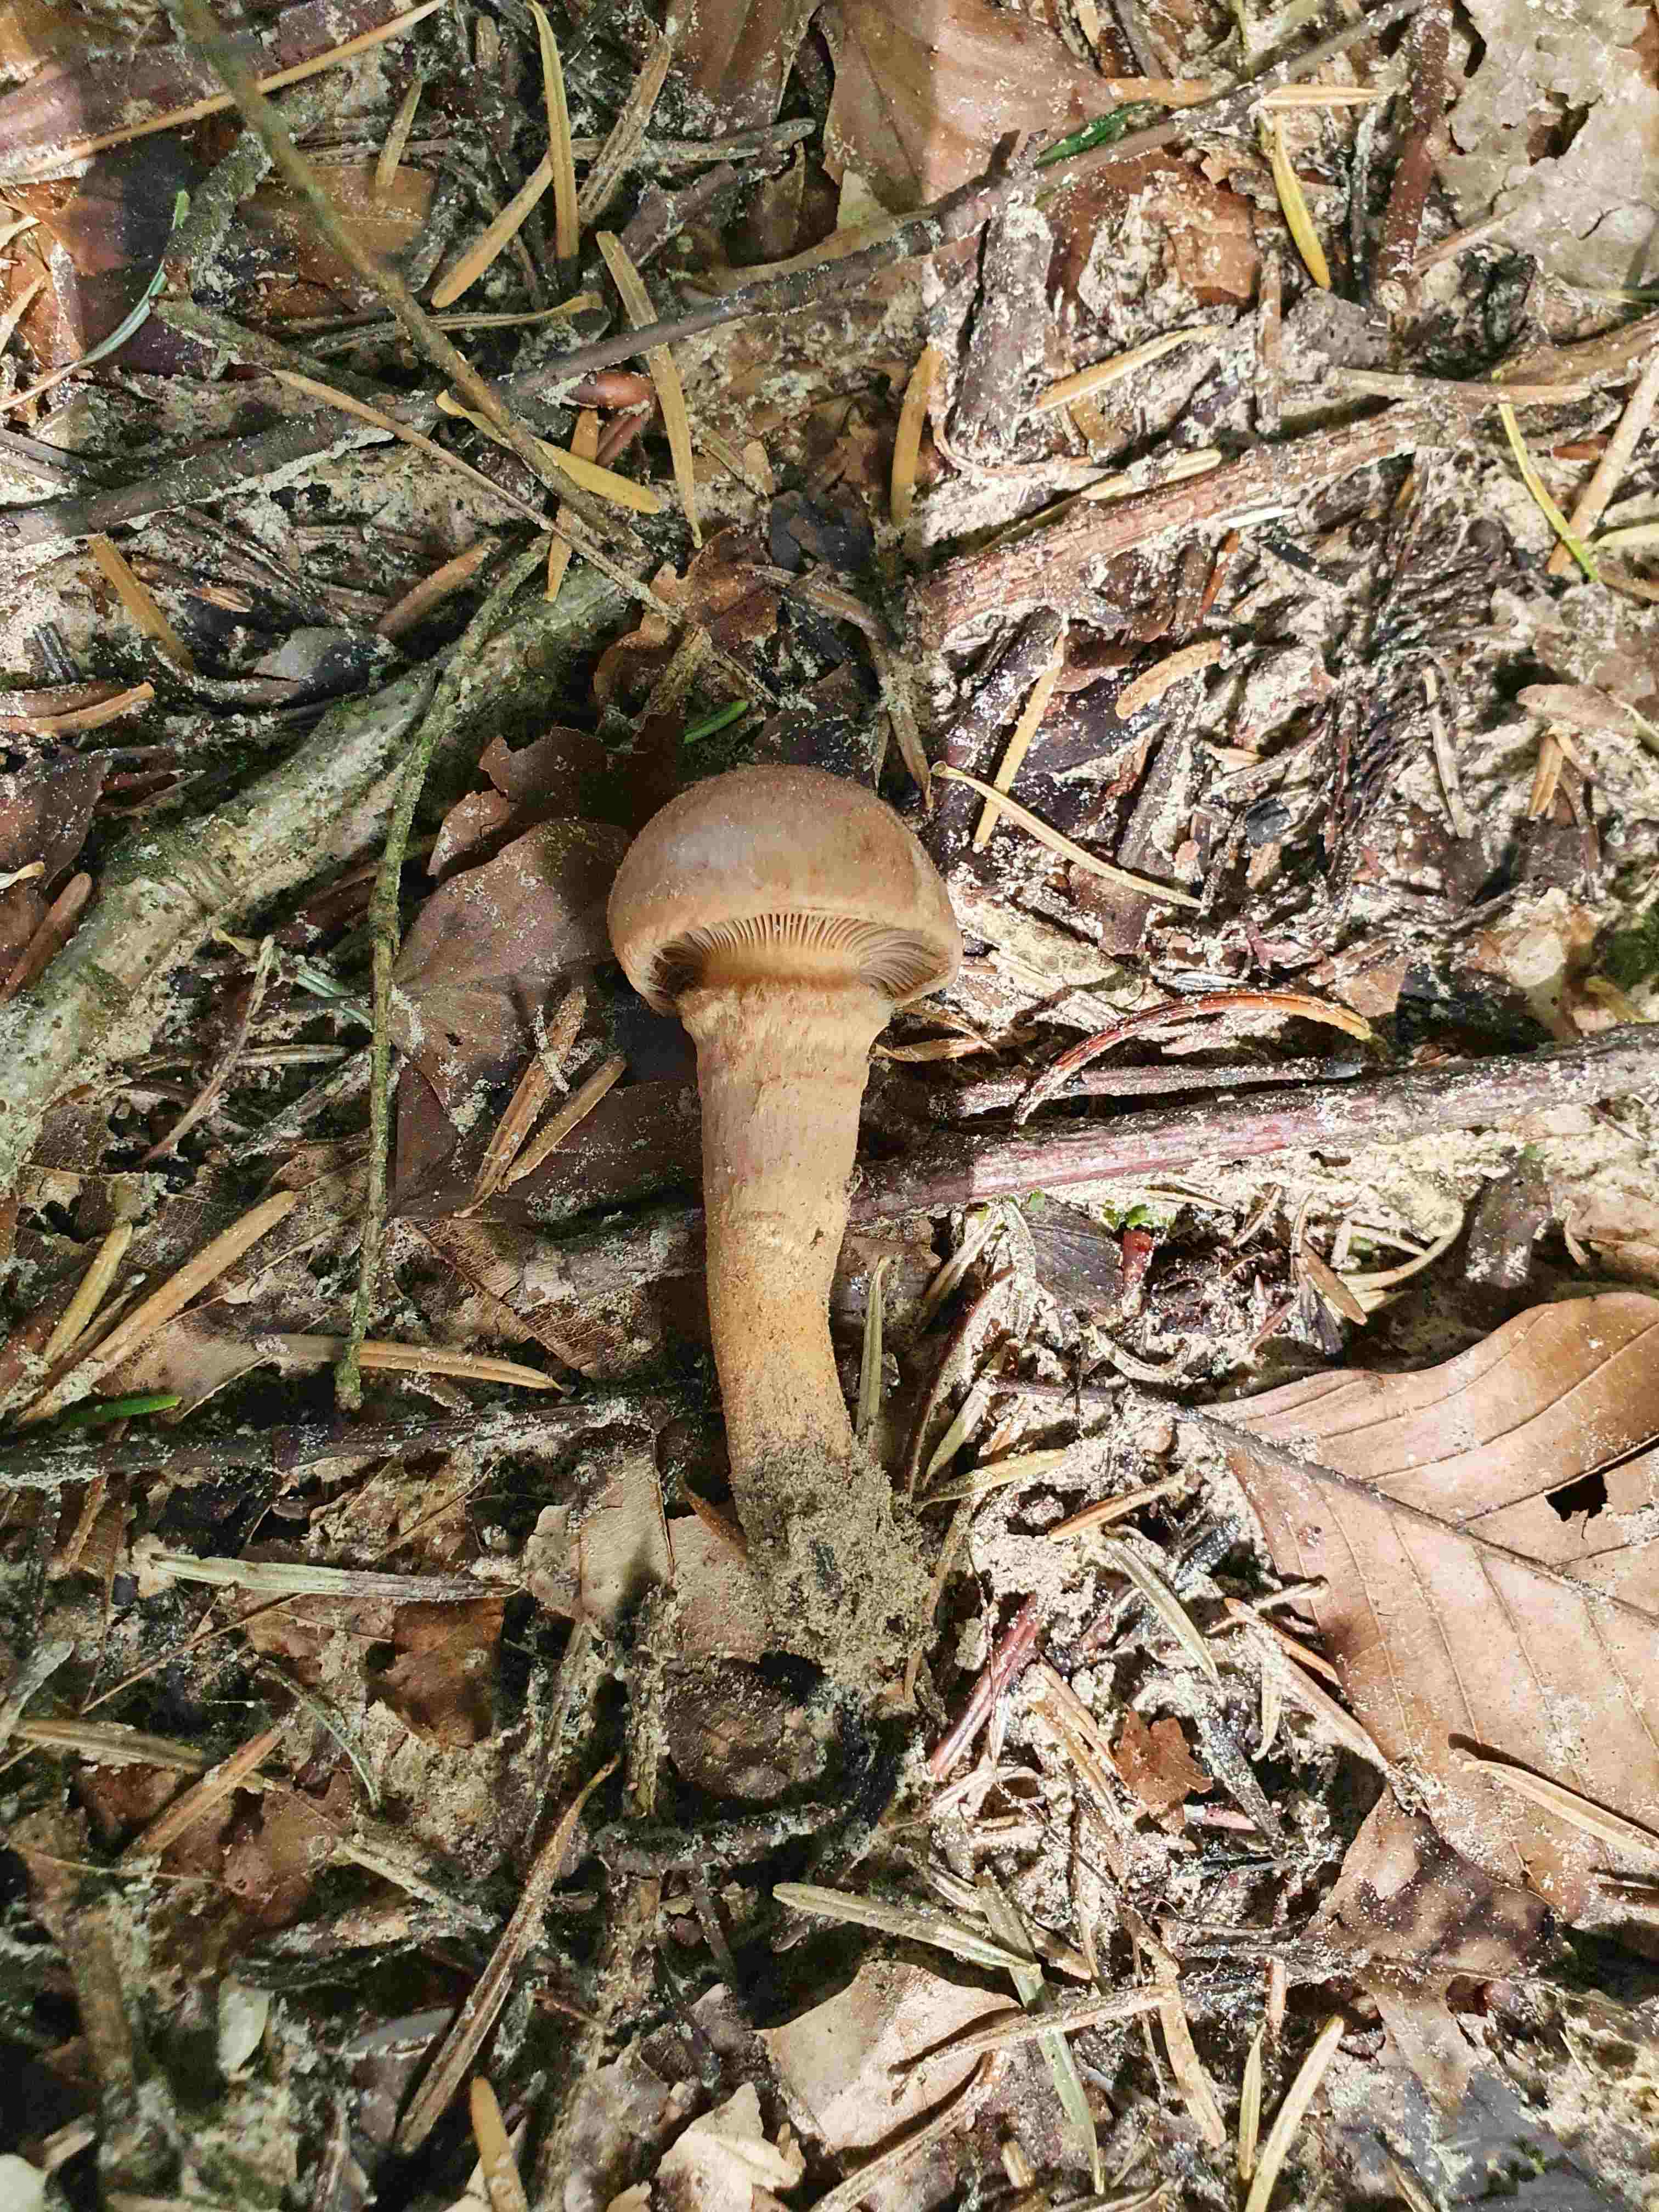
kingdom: Fungi
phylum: Basidiomycota
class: Agaricomycetes
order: Boletales
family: Gomphidiaceae
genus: Chroogomphus
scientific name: Chroogomphus
